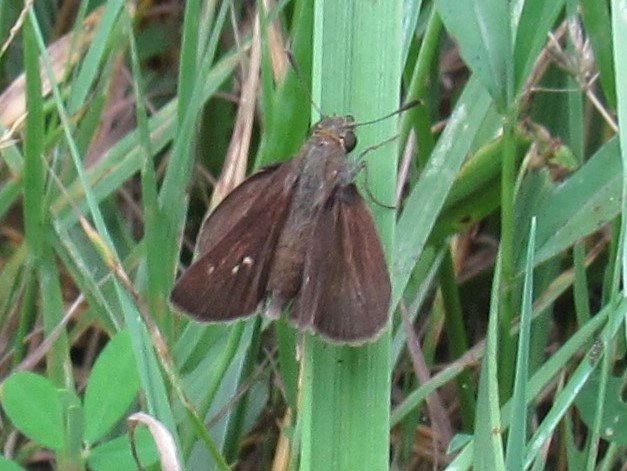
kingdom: Animalia
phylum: Arthropoda
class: Insecta
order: Lepidoptera
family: Hesperiidae
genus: Euphyes
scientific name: Euphyes
